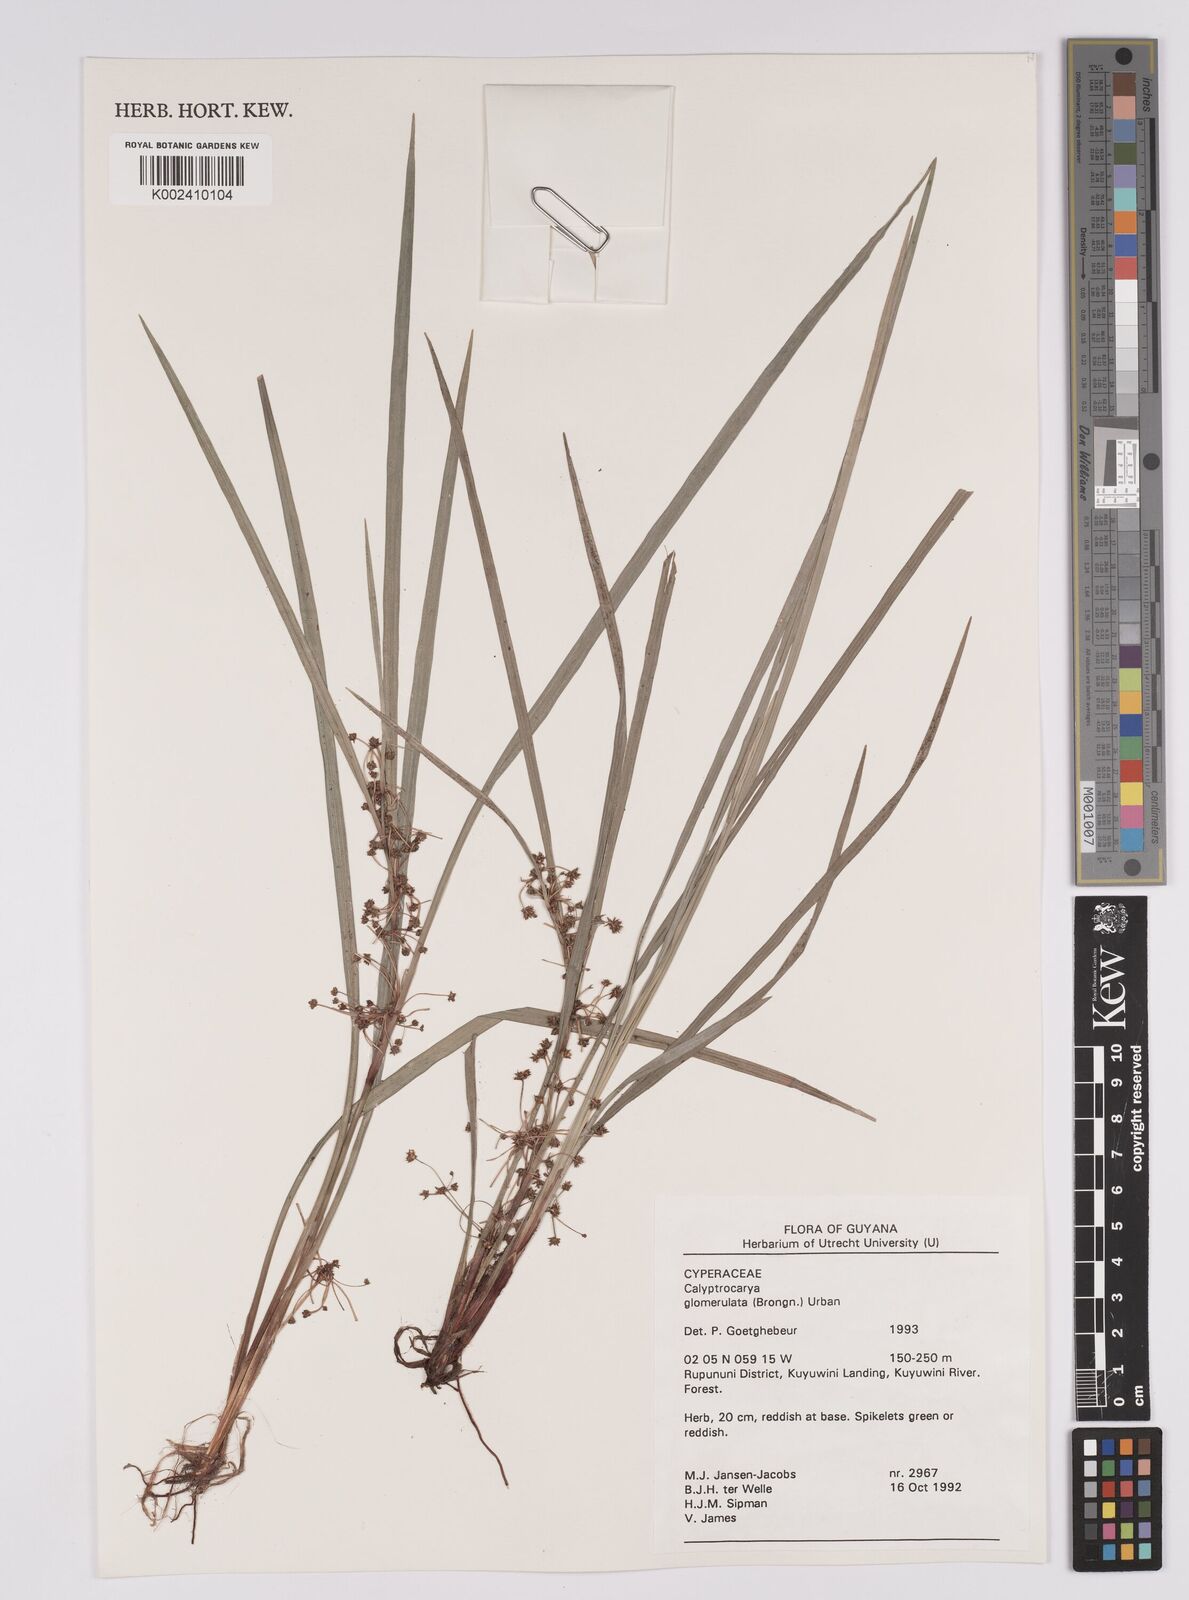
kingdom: Plantae
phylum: Tracheophyta
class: Liliopsida
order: Poales
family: Cyperaceae
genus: Calyptrocarya
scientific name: Calyptrocarya glomerulata
